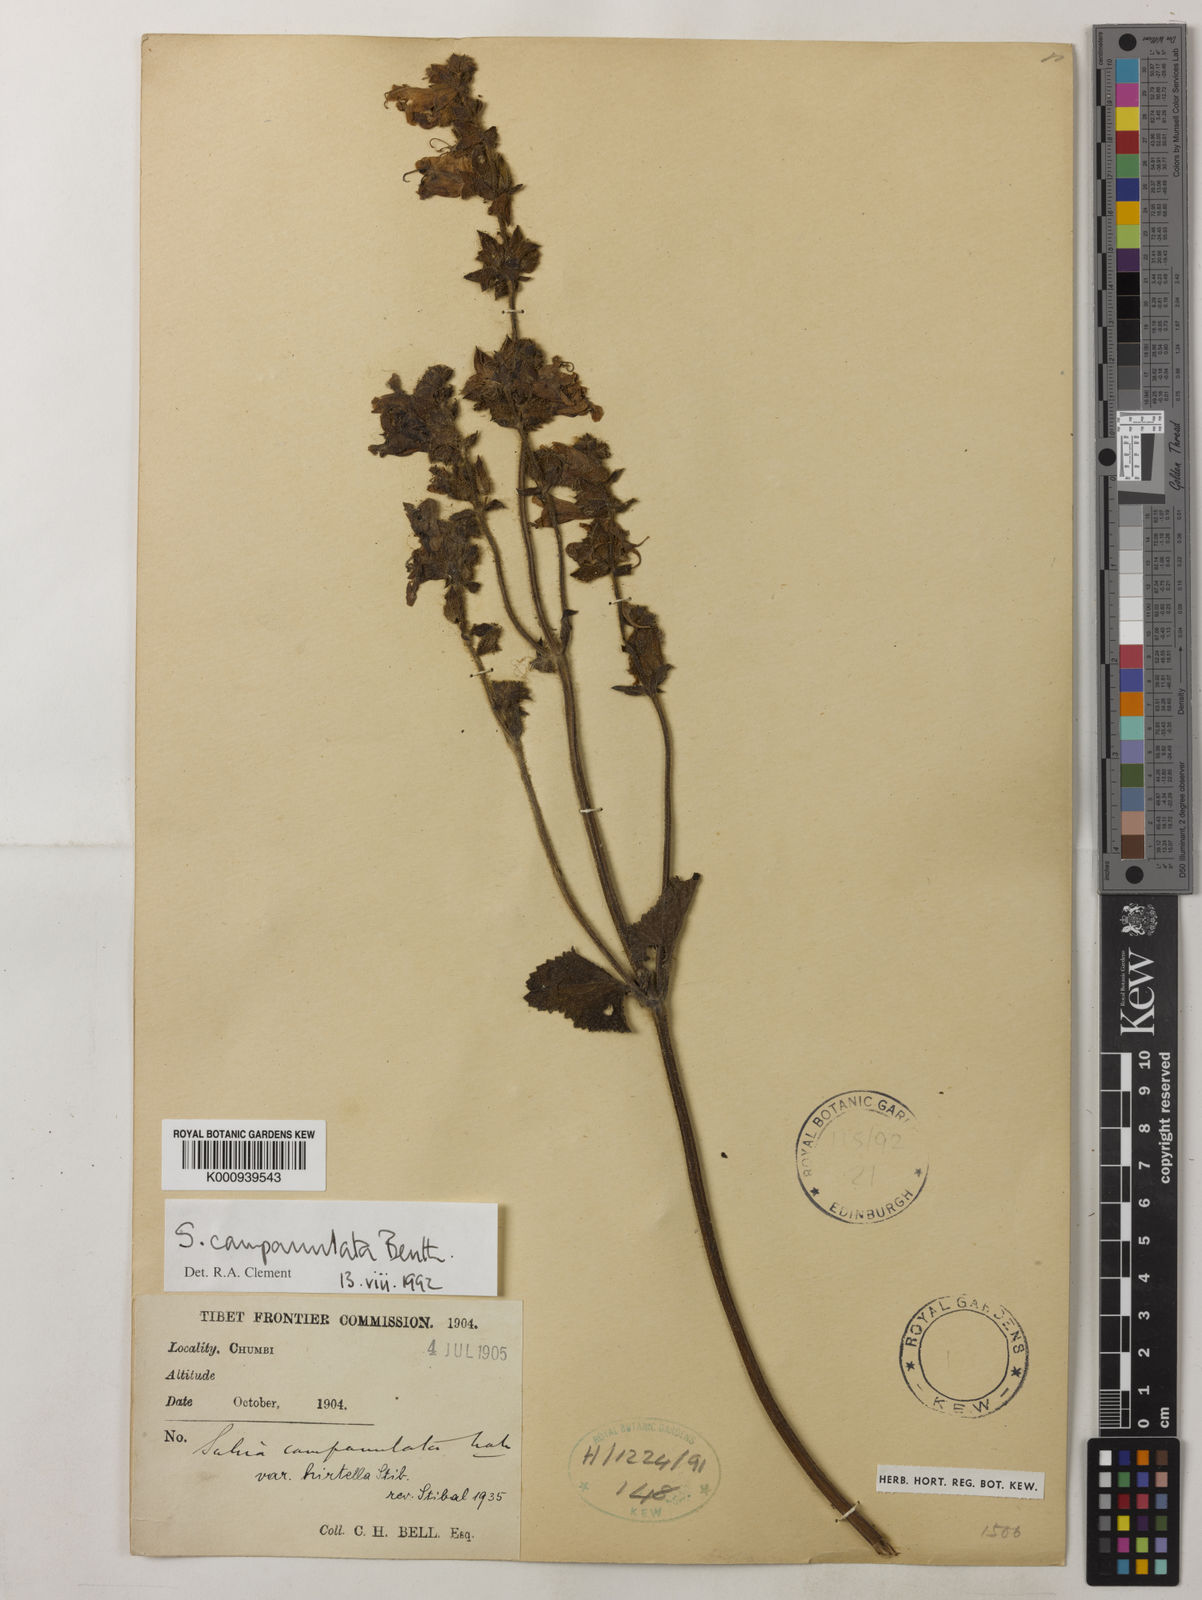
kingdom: Plantae
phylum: Tracheophyta
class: Magnoliopsida
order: Lamiales
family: Lamiaceae
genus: Salvia
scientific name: Salvia campanulata
